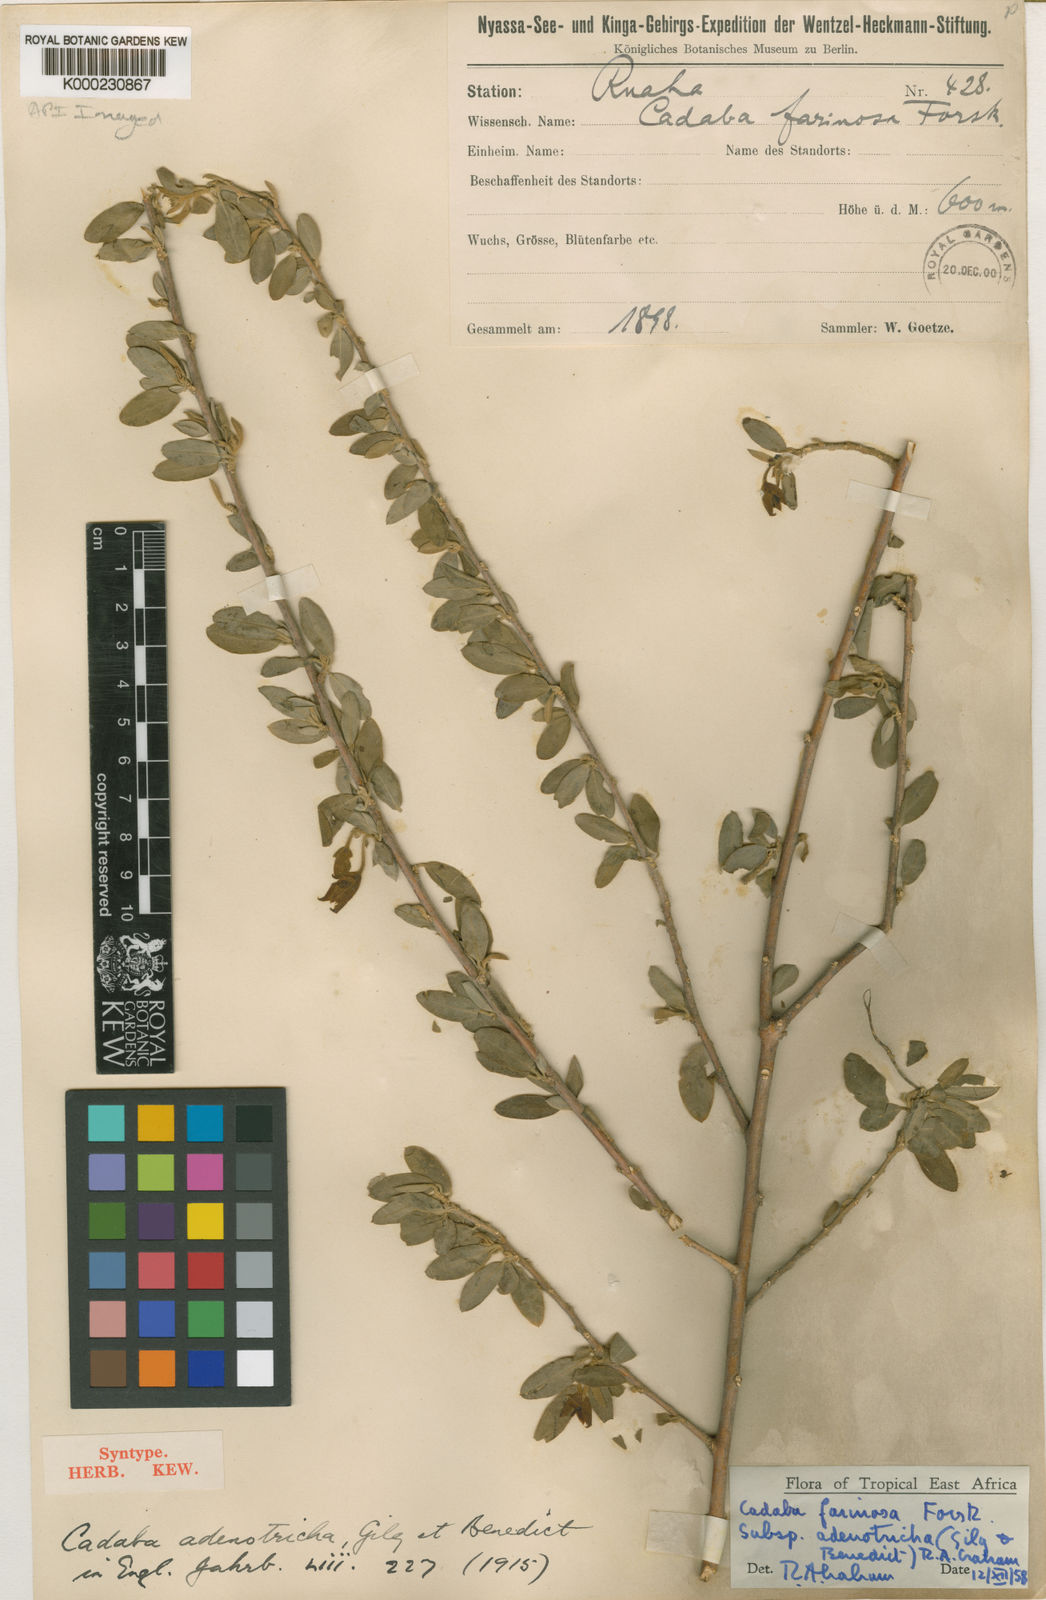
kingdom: Plantae
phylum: Tracheophyta
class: Magnoliopsida
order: Brassicales
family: Capparaceae
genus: Cadaba
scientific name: Cadaba farinosa
